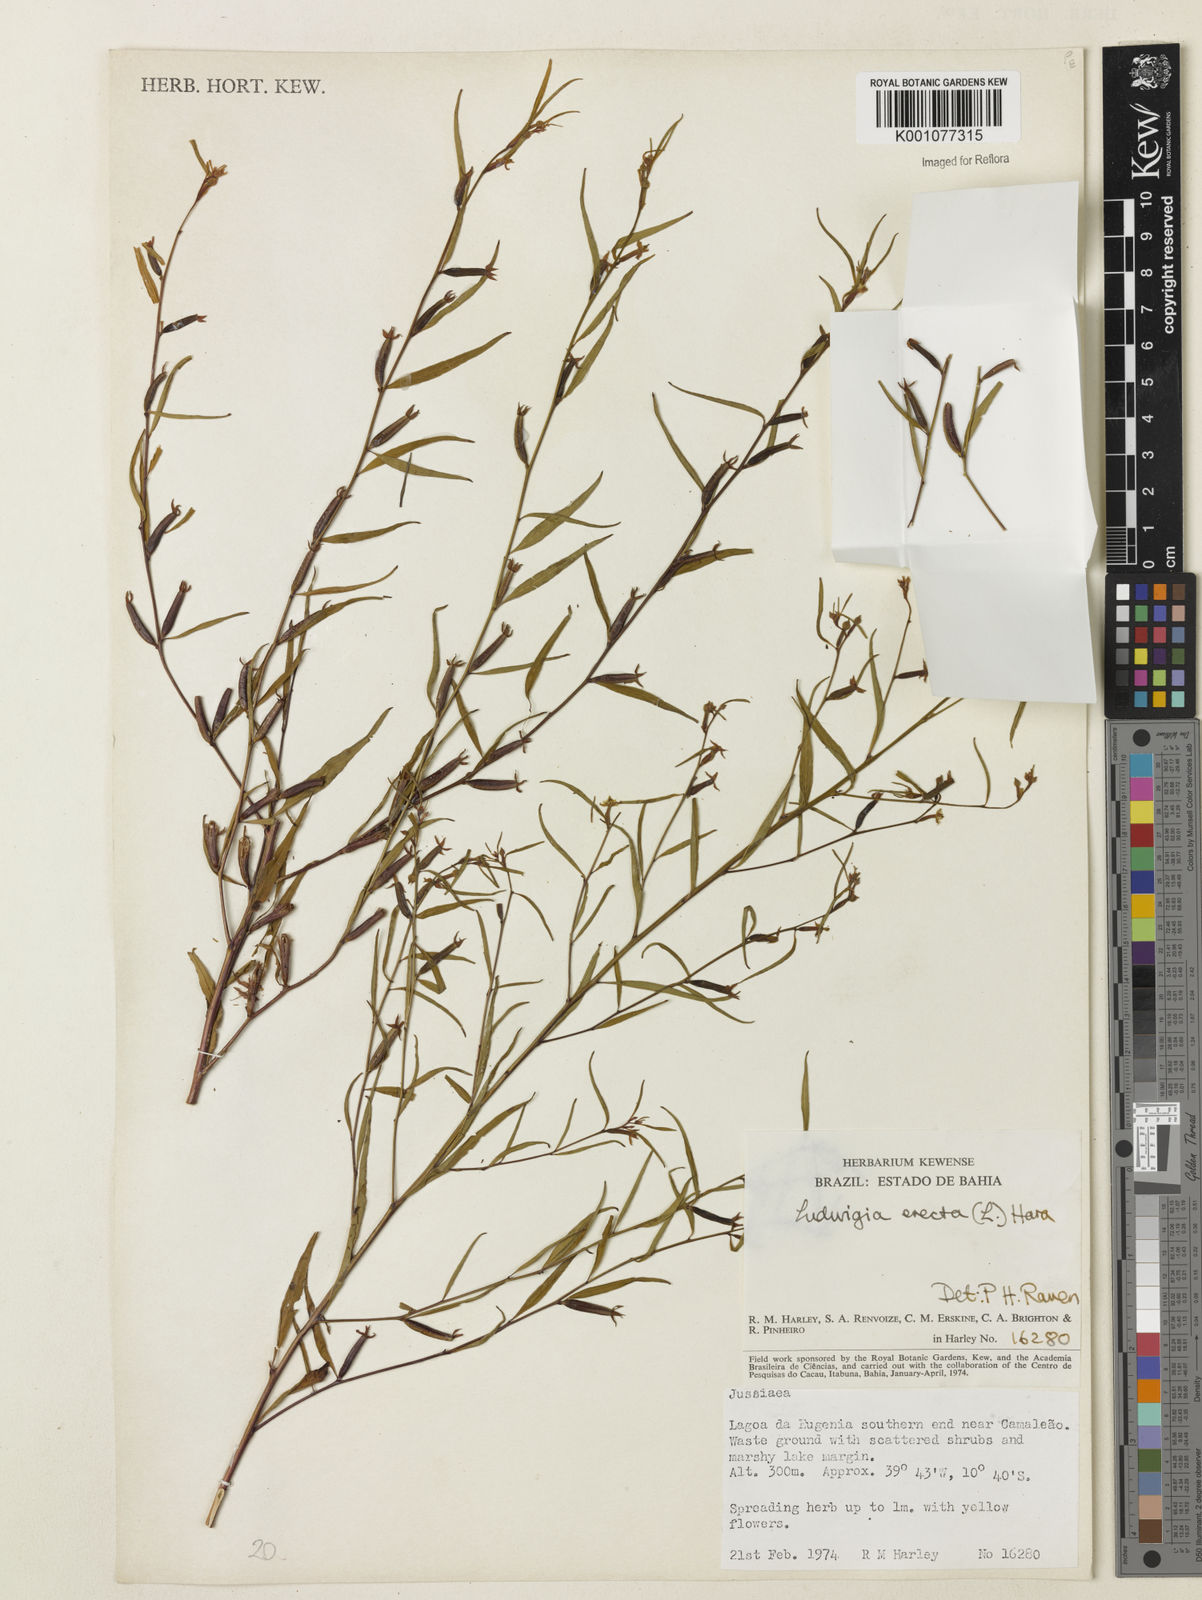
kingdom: Plantae
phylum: Tracheophyta
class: Magnoliopsida
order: Myrtales
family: Onagraceae
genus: Ludwigia
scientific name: Ludwigia erecta
